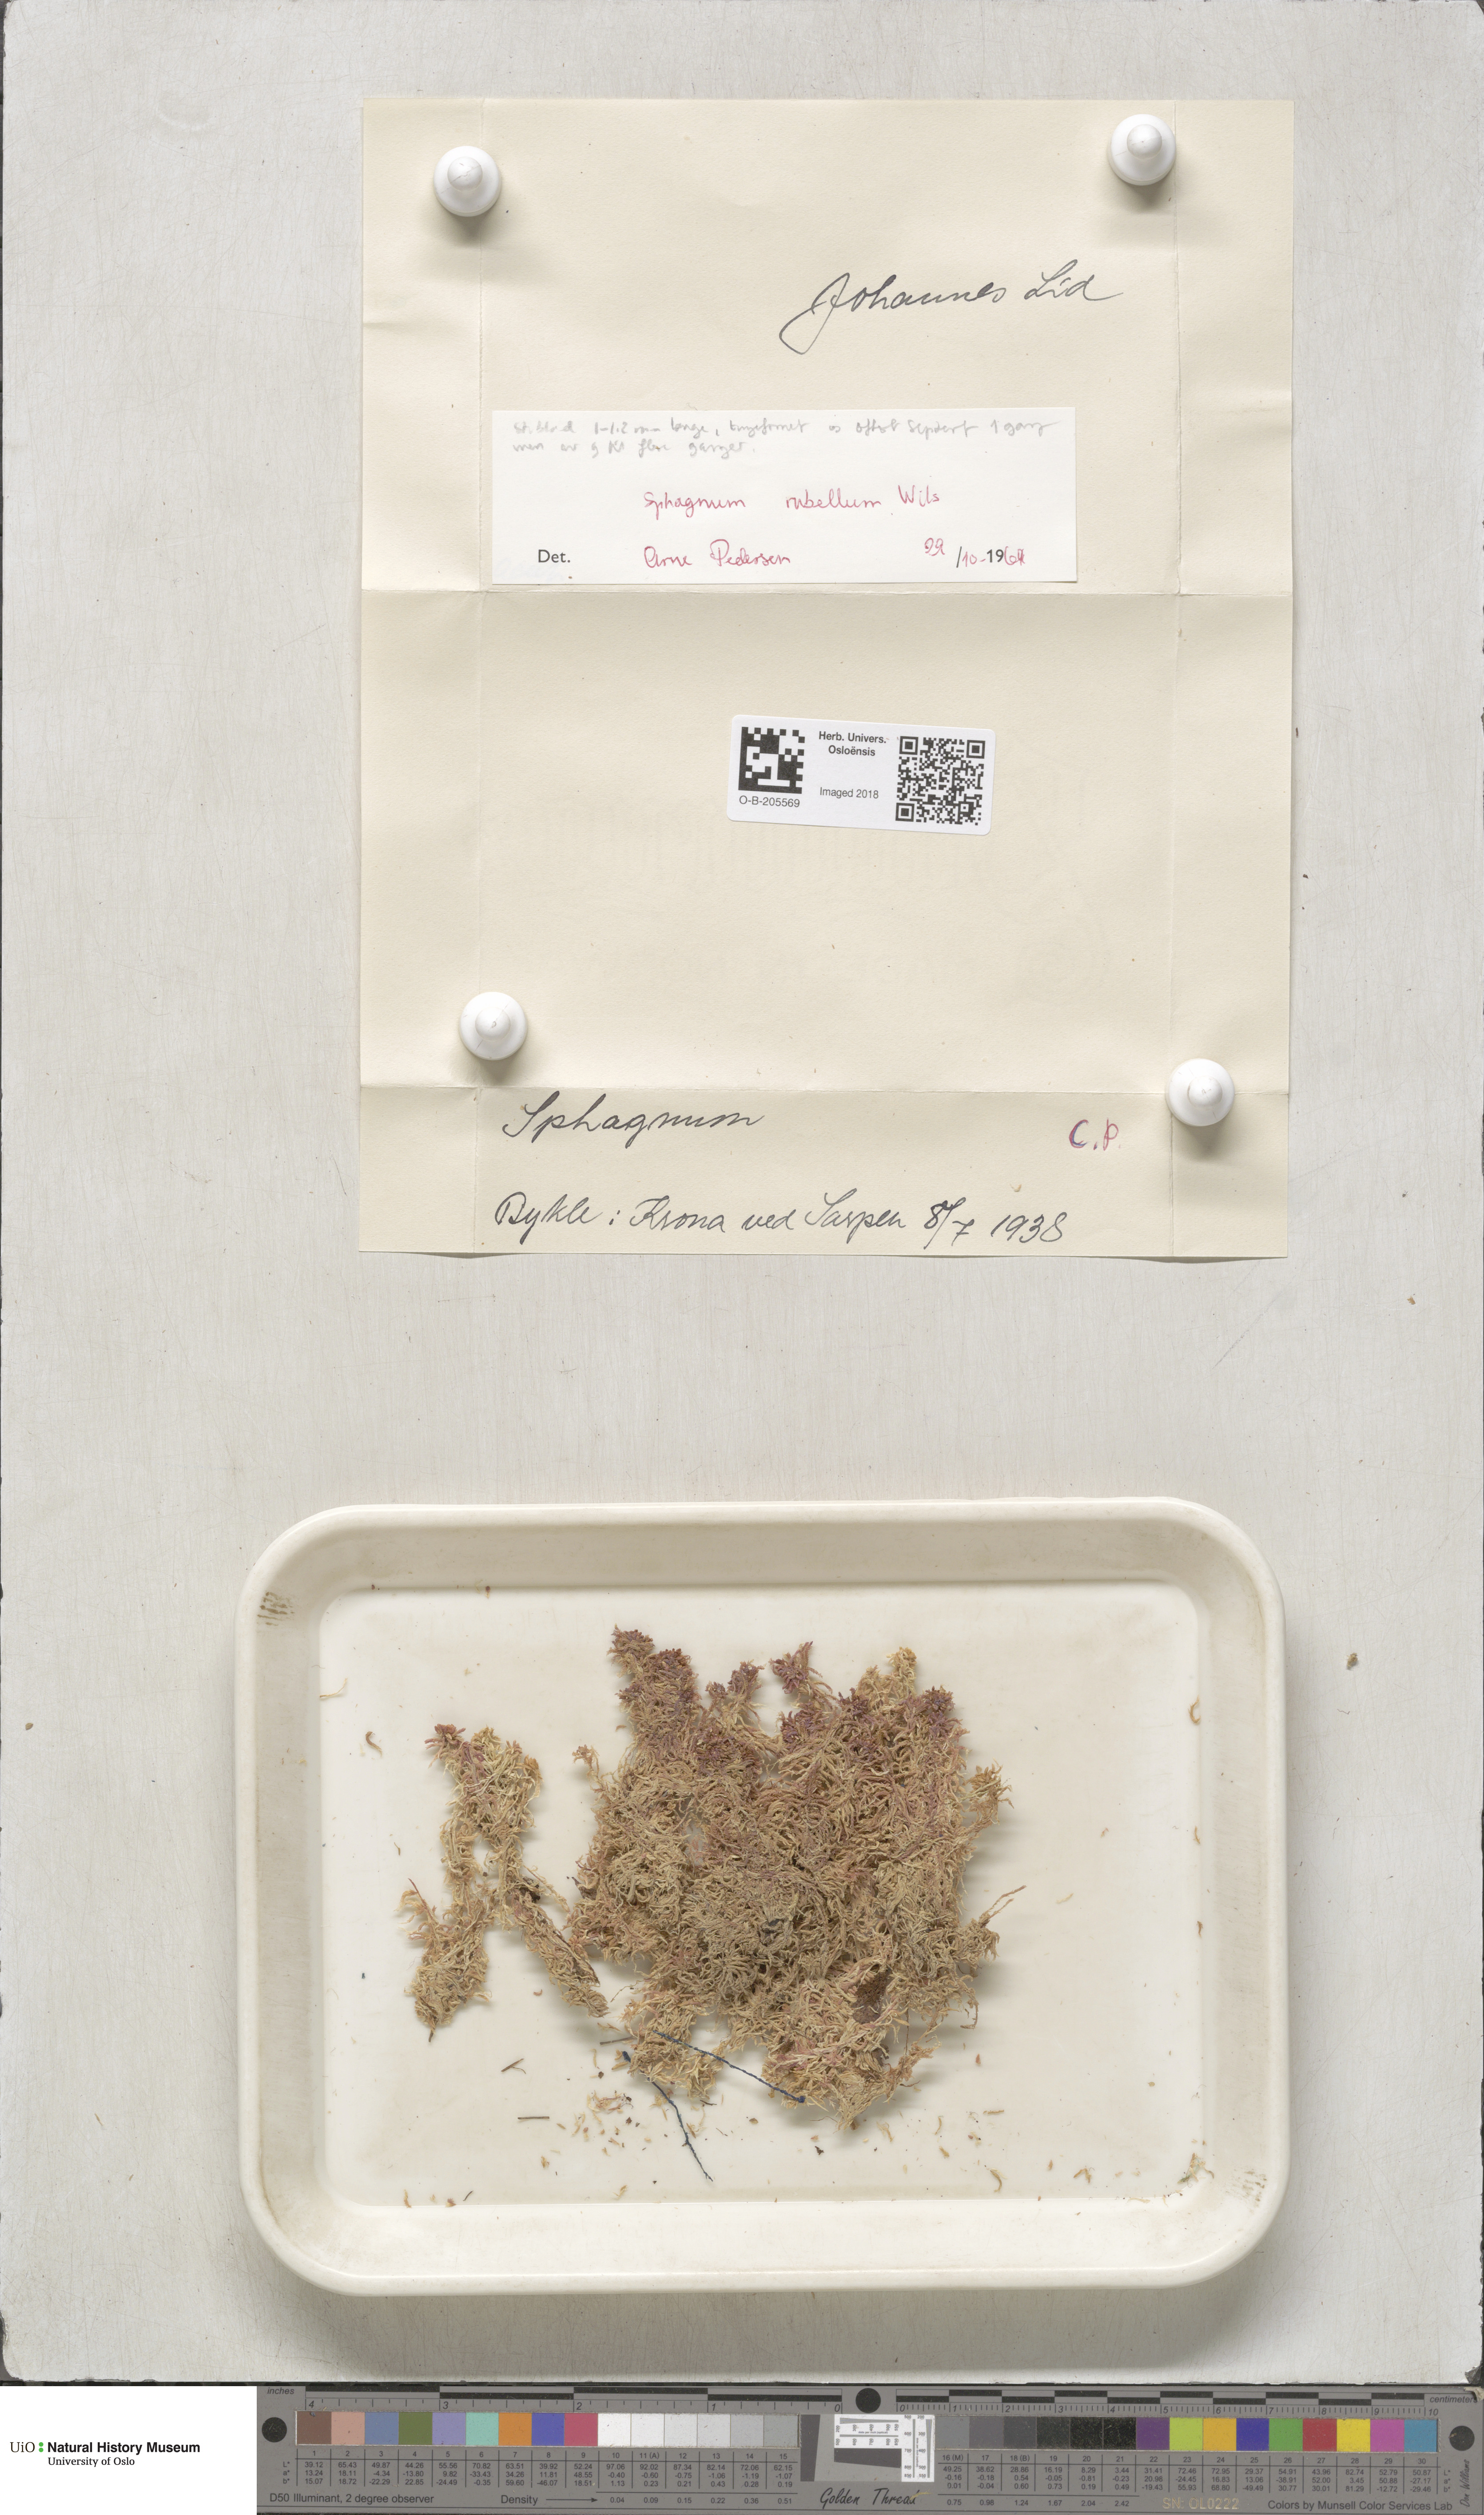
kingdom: Plantae
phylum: Bryophyta
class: Sphagnopsida
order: Sphagnales
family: Sphagnaceae
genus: Sphagnum
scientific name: Sphagnum rubellum
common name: Red peat moss
